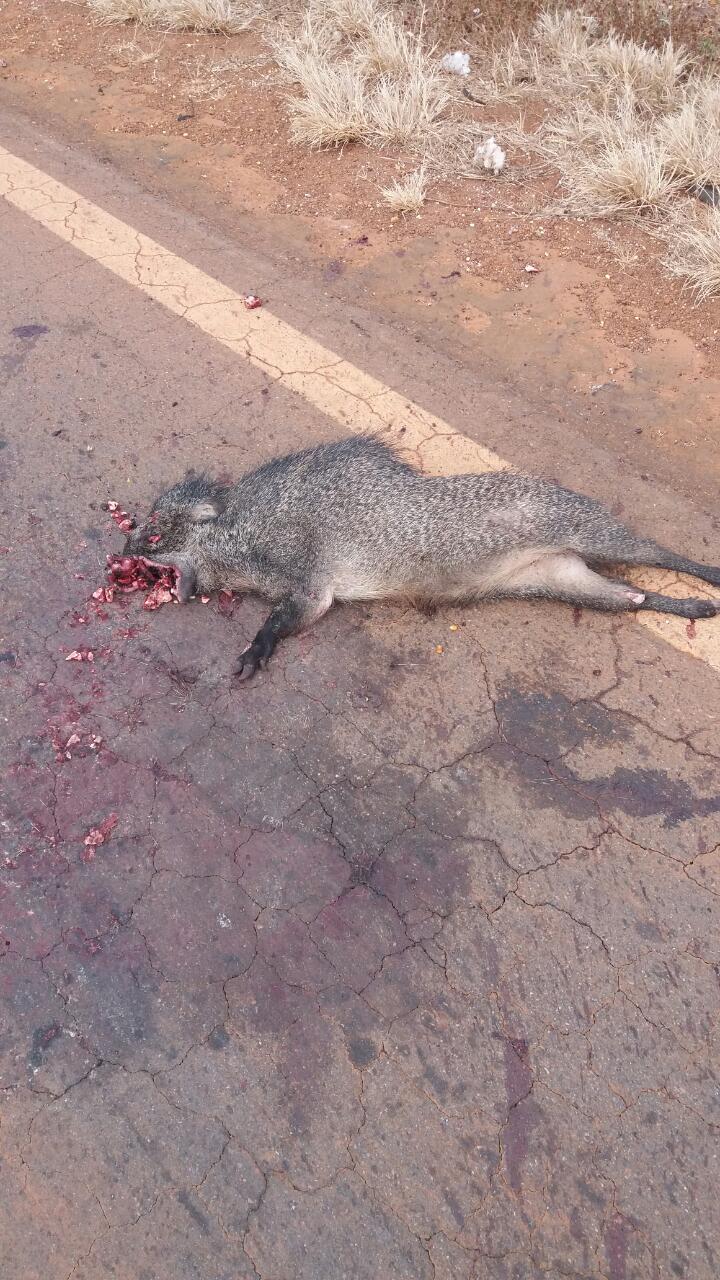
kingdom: Animalia
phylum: Chordata
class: Mammalia
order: Artiodactyla
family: Tayassuidae
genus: Pecari
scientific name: Pecari tajacu
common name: Collared peccary
